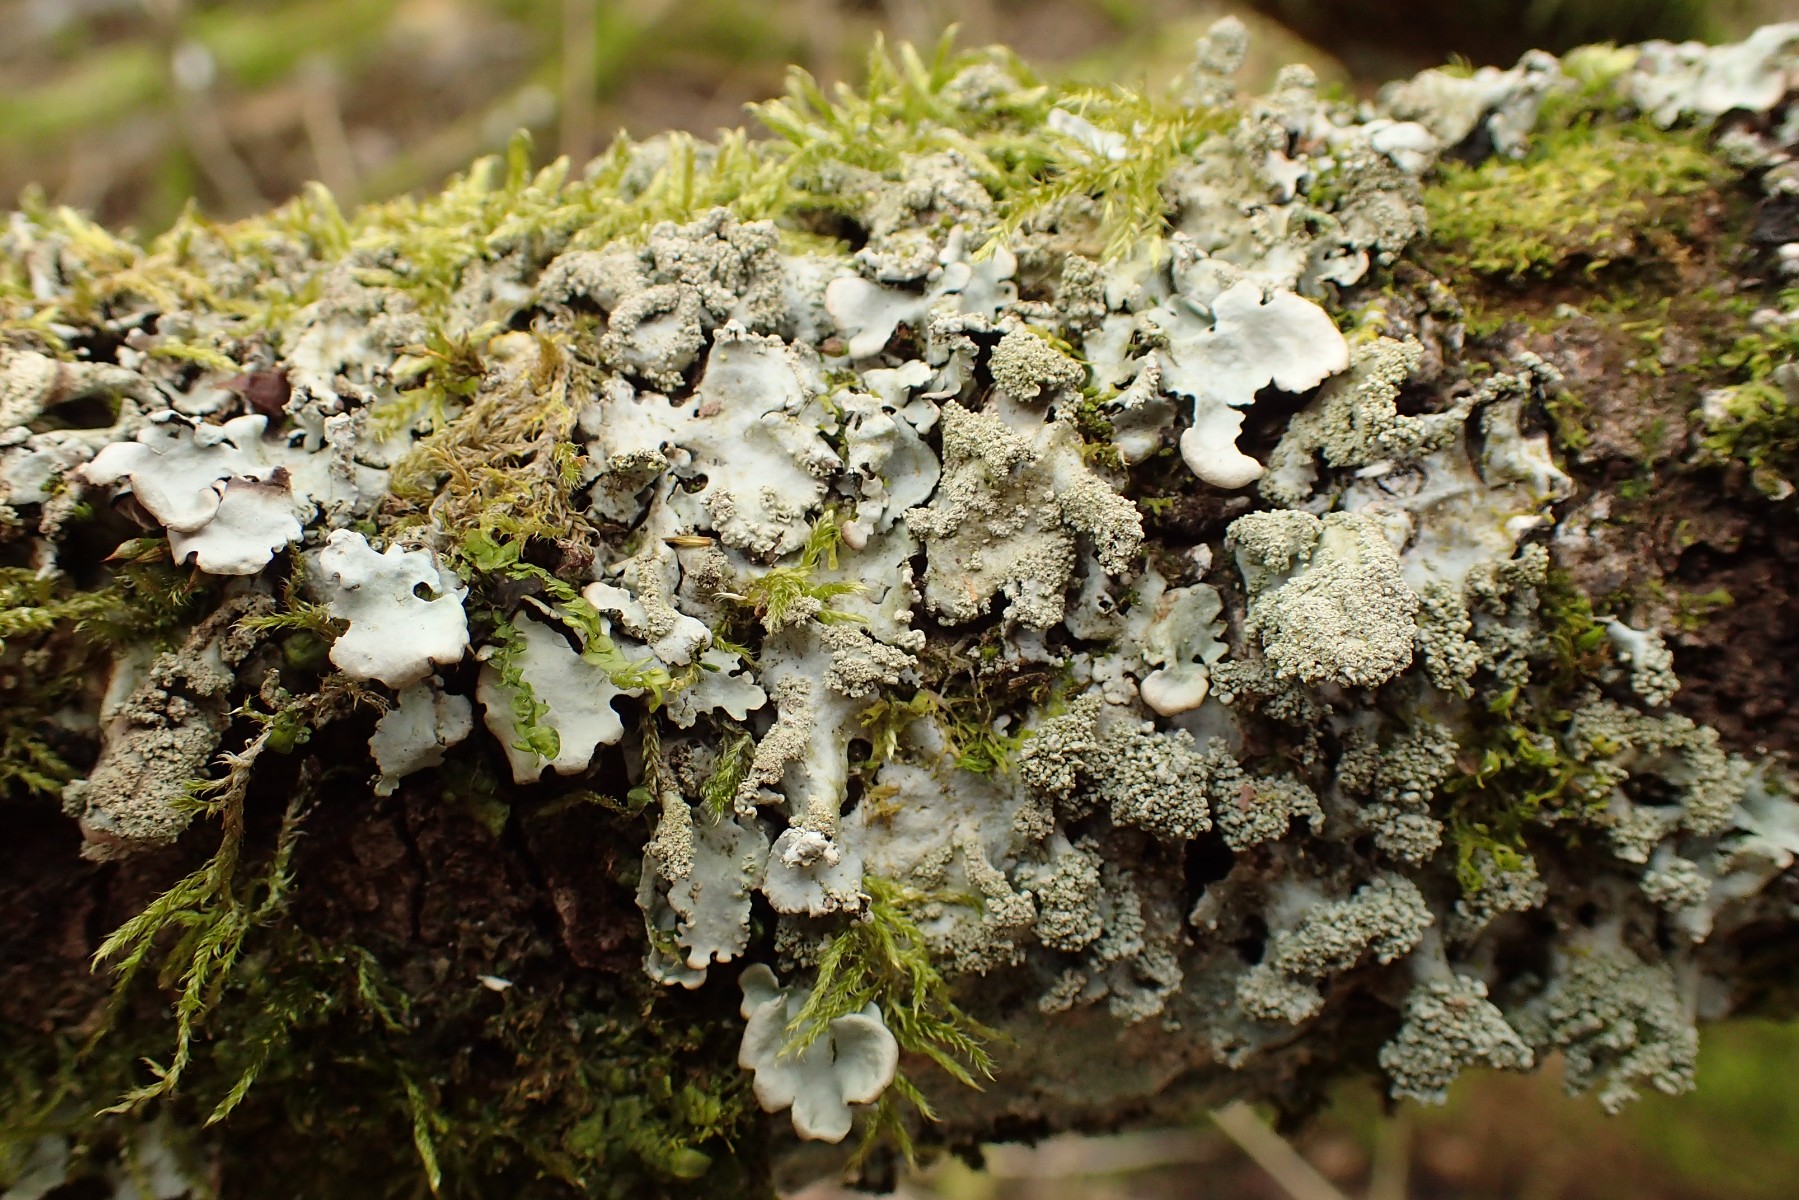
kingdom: Fungi
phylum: Ascomycota
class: Lecanoromycetes
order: Lecanorales
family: Parmeliaceae
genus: Hypotrachyna
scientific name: Hypotrachyna afrorevoluta
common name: kyst-skållav
